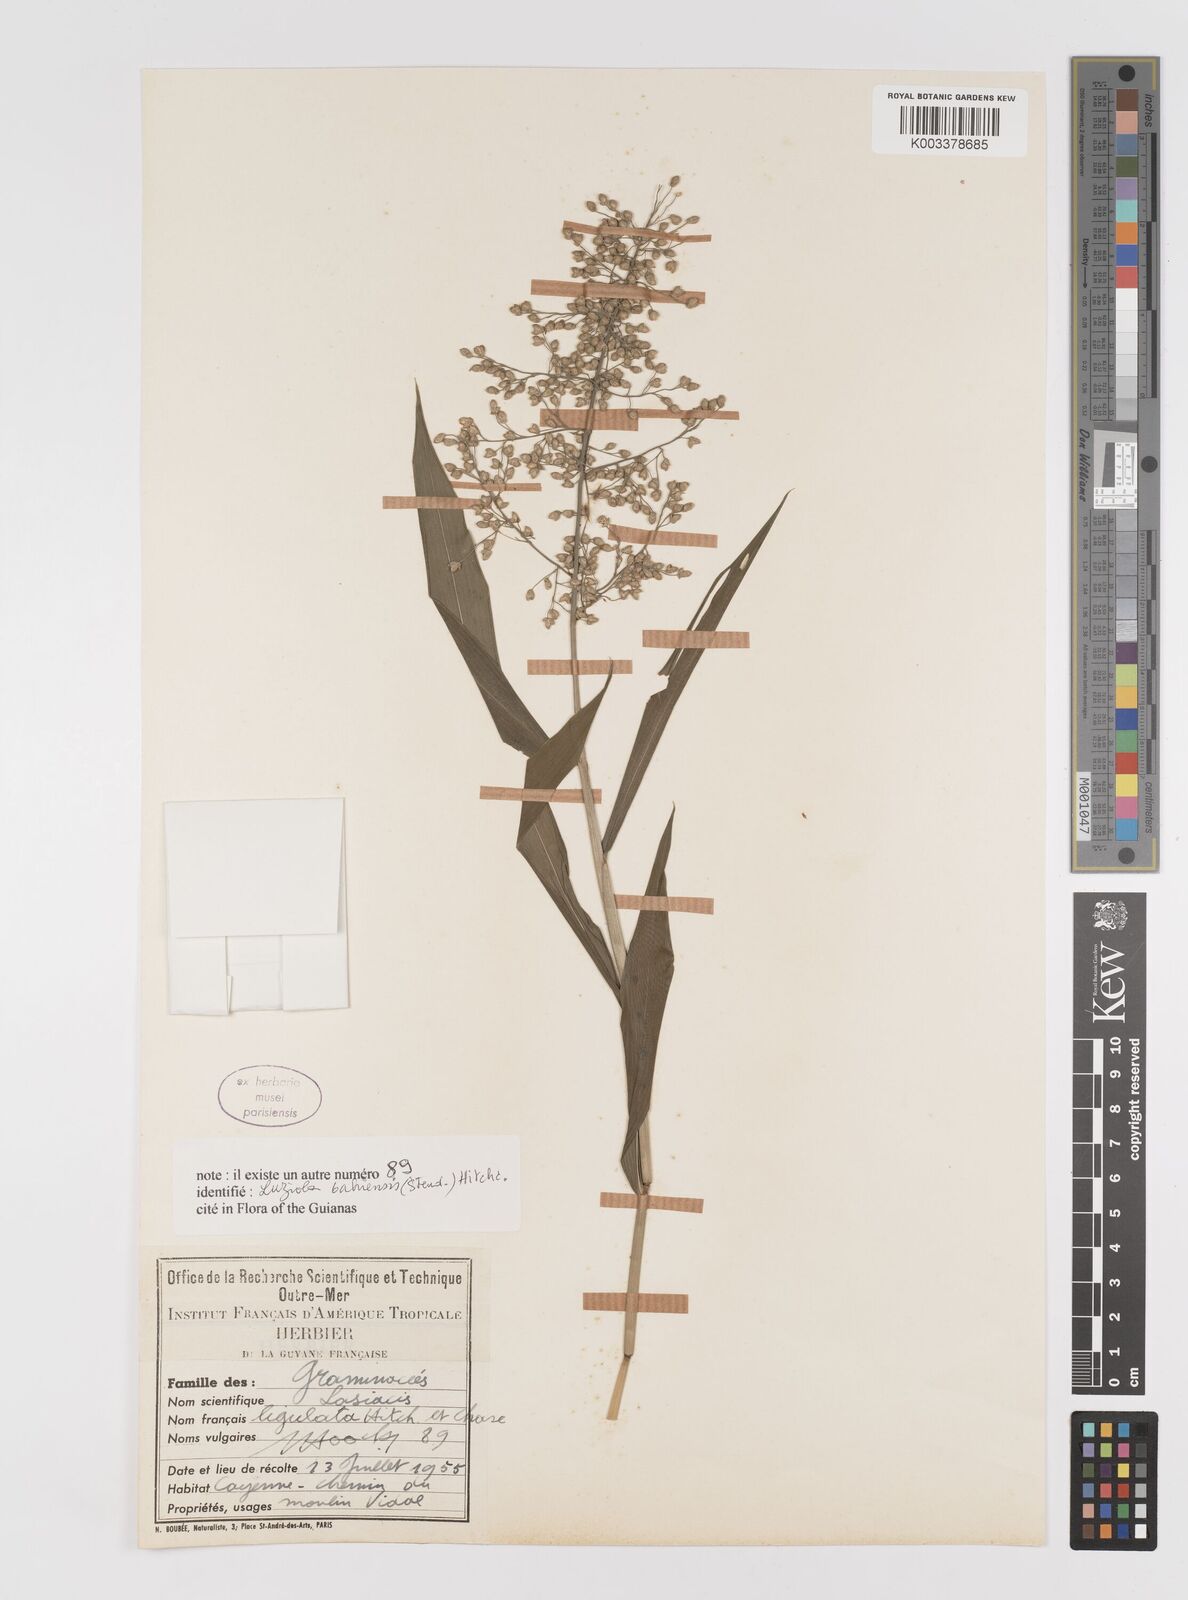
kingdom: Plantae
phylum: Tracheophyta
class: Liliopsida
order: Poales
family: Poaceae
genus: Lasiacis
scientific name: Lasiacis ligulata
